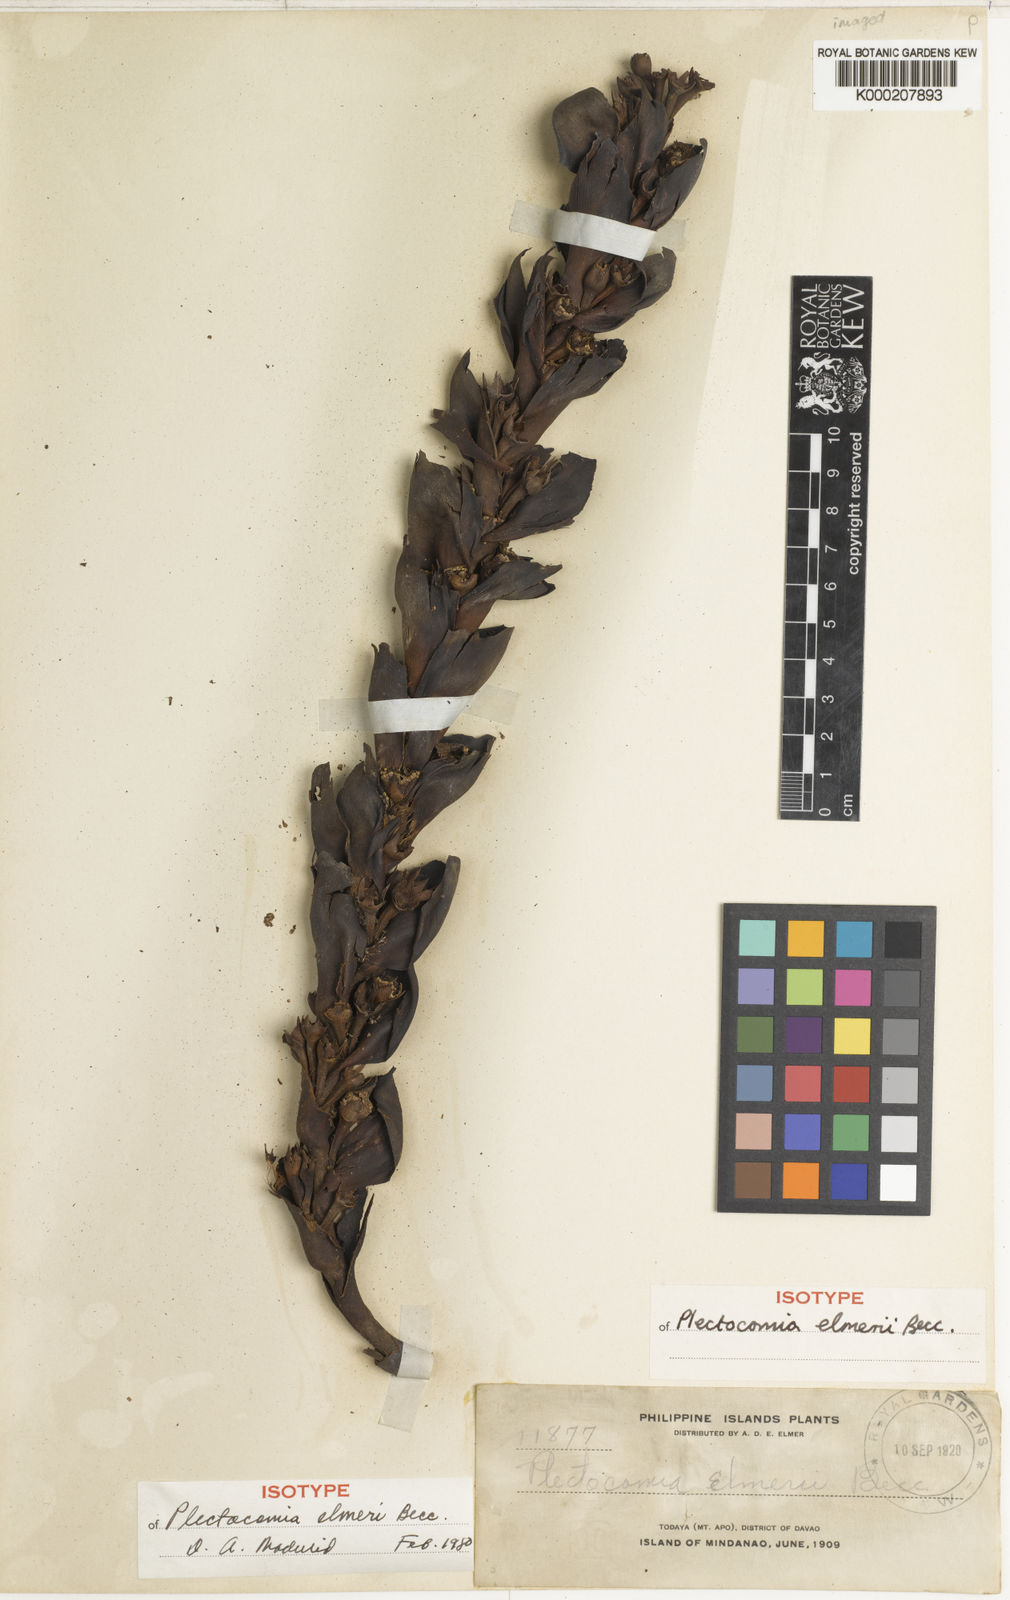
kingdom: Plantae
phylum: Tracheophyta
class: Liliopsida
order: Arecales
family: Arecaceae
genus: Plectocomia
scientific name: Plectocomia elmeri
